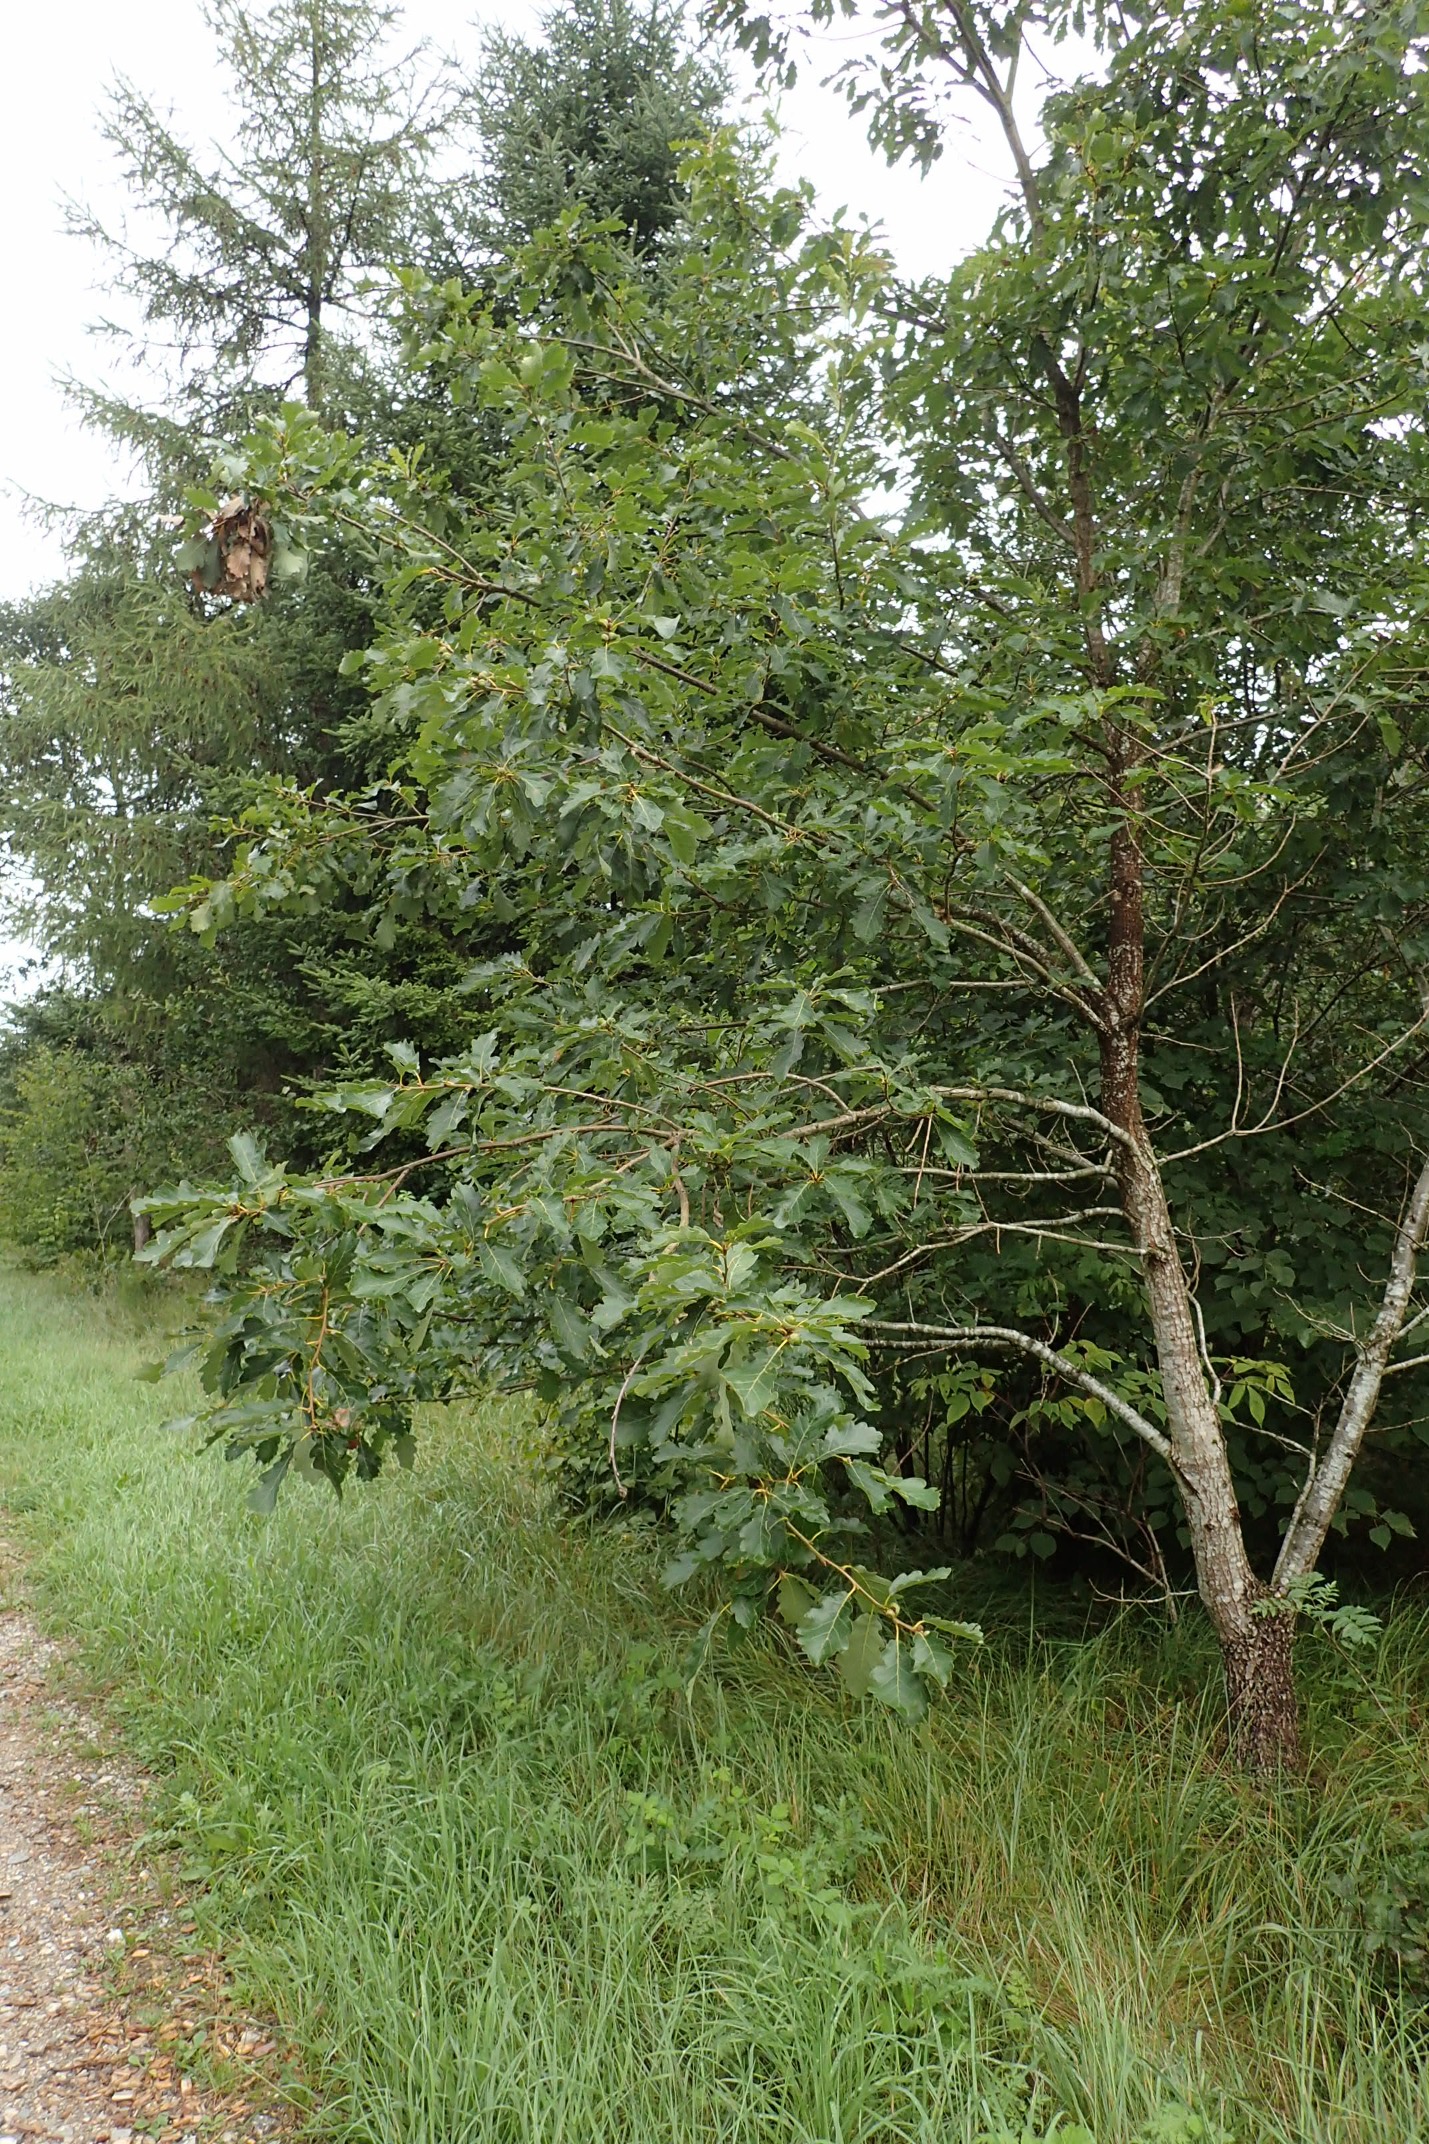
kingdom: Plantae
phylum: Tracheophyta
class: Magnoliopsida
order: Fagales
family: Fagaceae
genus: Quercus
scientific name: Quercus petraea
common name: Vinter-eg
